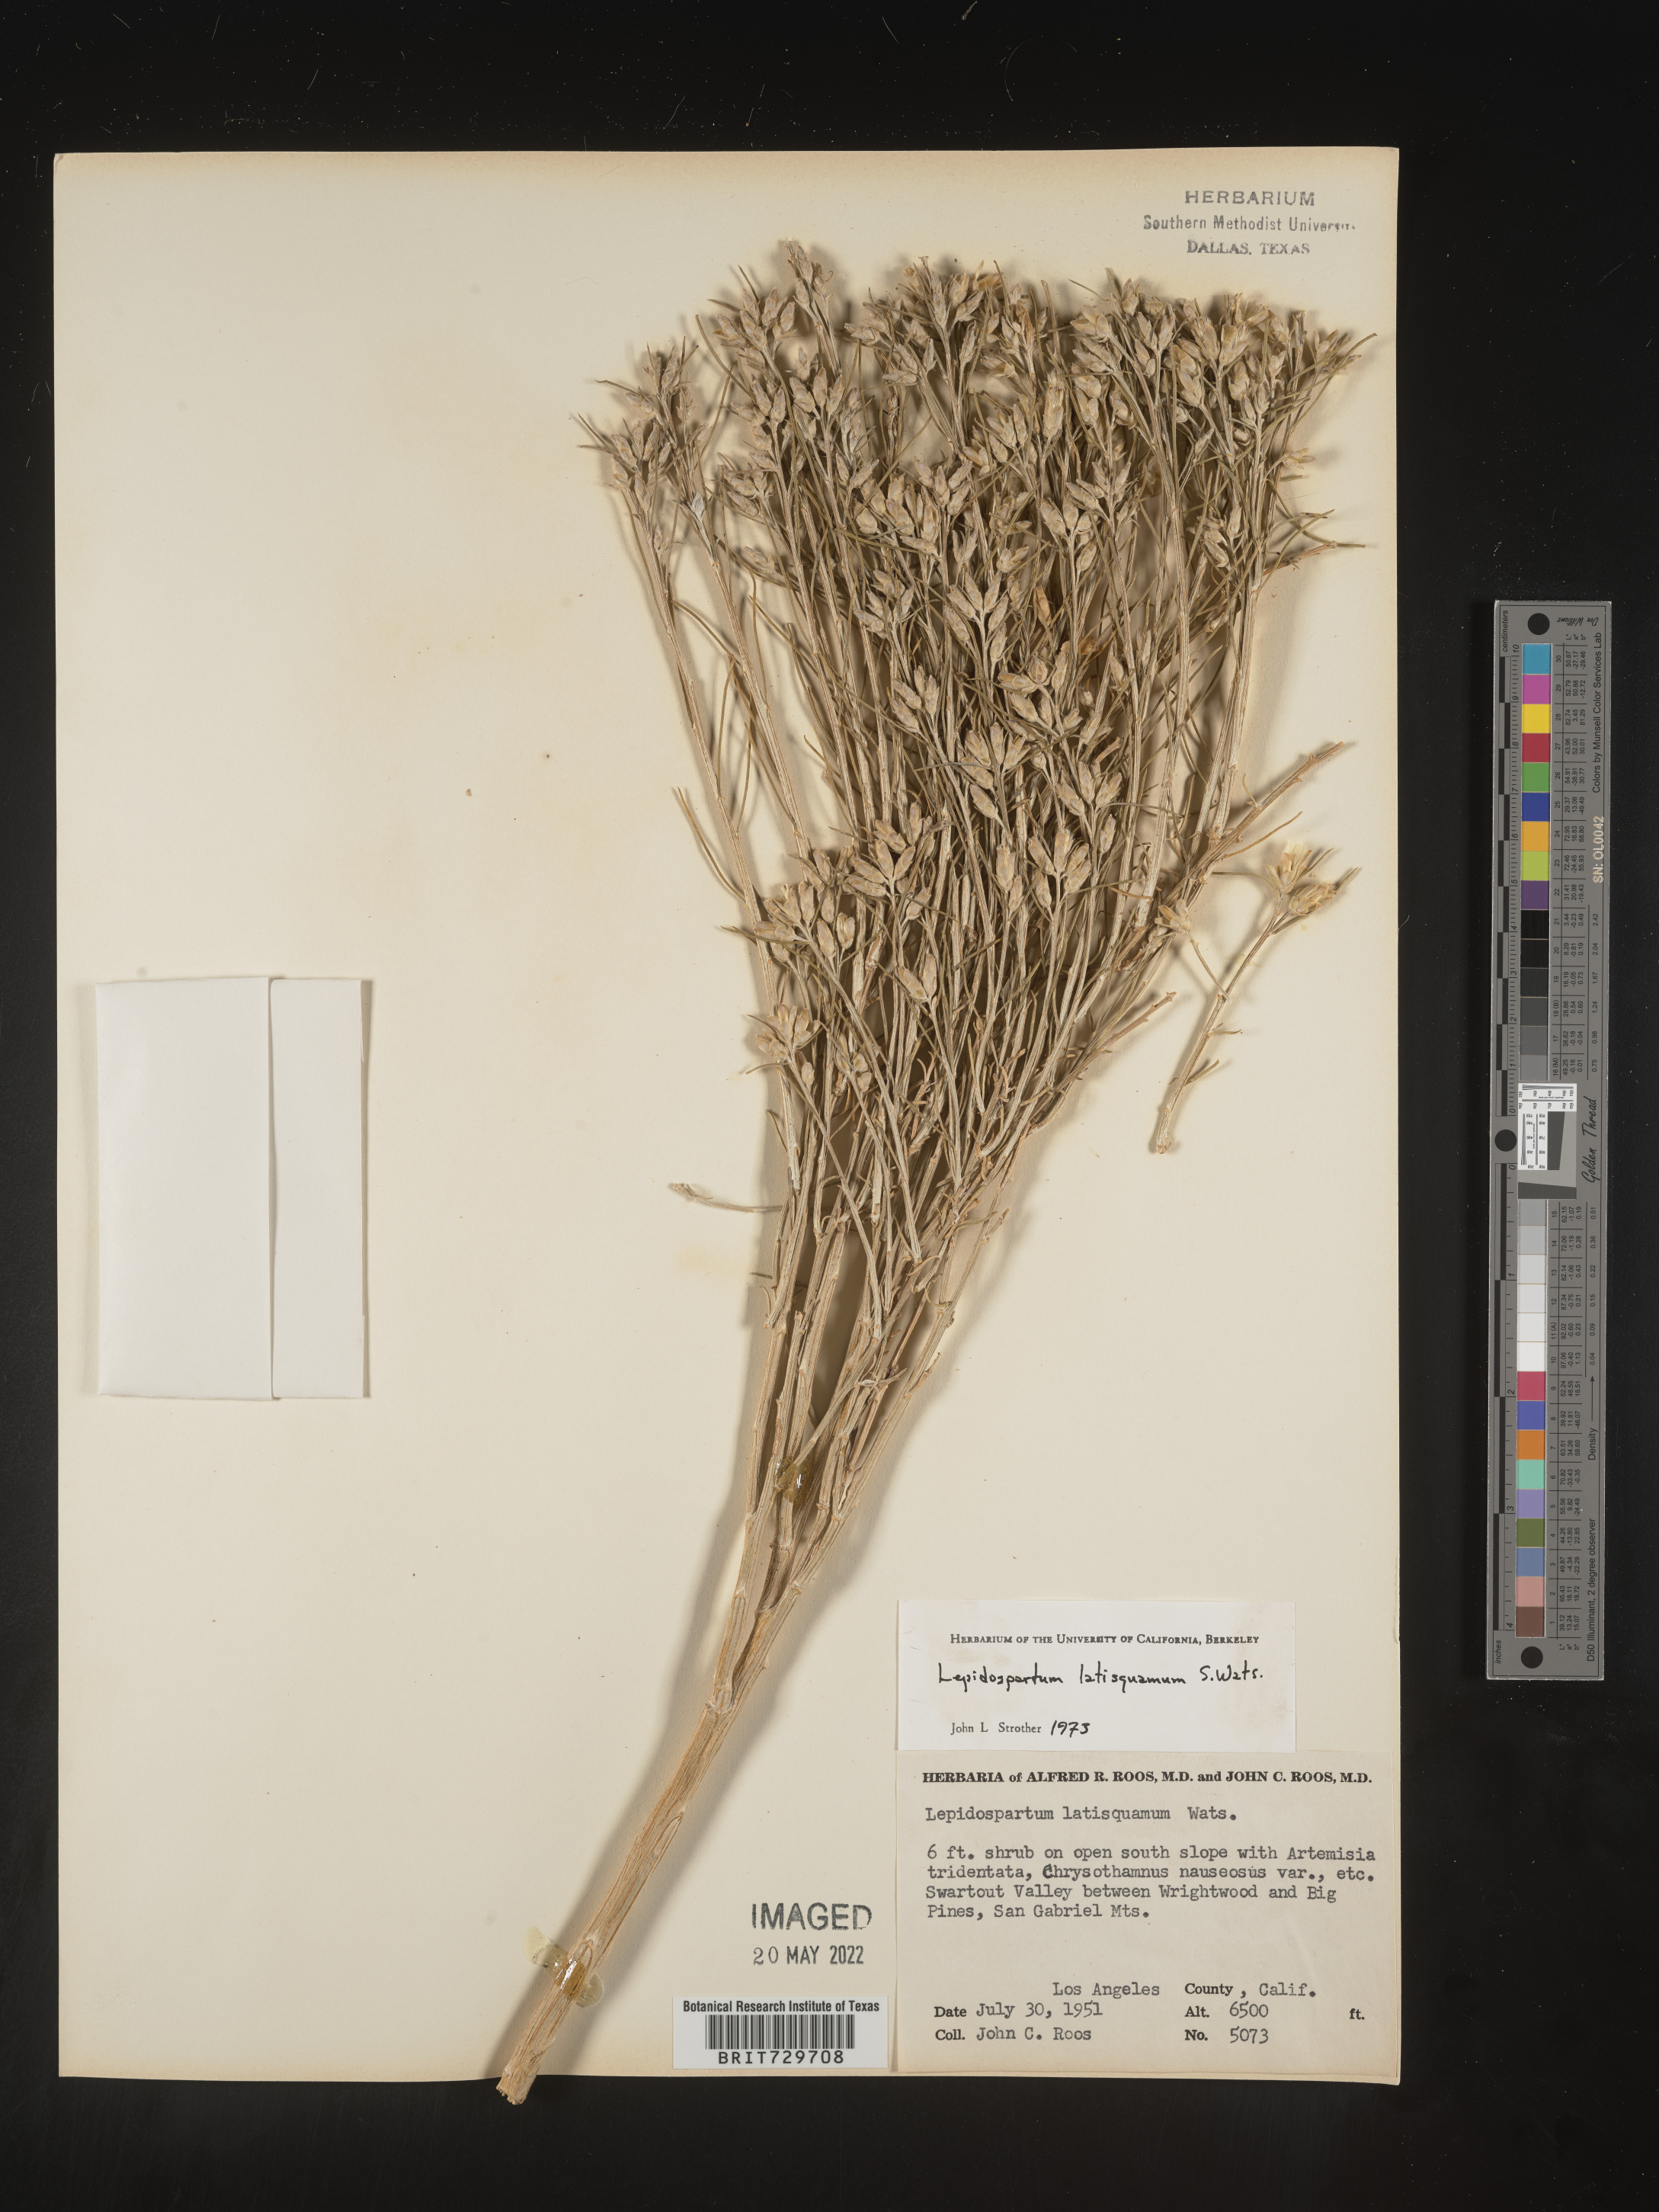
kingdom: Plantae
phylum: Tracheophyta
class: Magnoliopsida
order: Asterales
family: Asteraceae
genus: Lepidospartum
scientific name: Lepidospartum latisquamum
